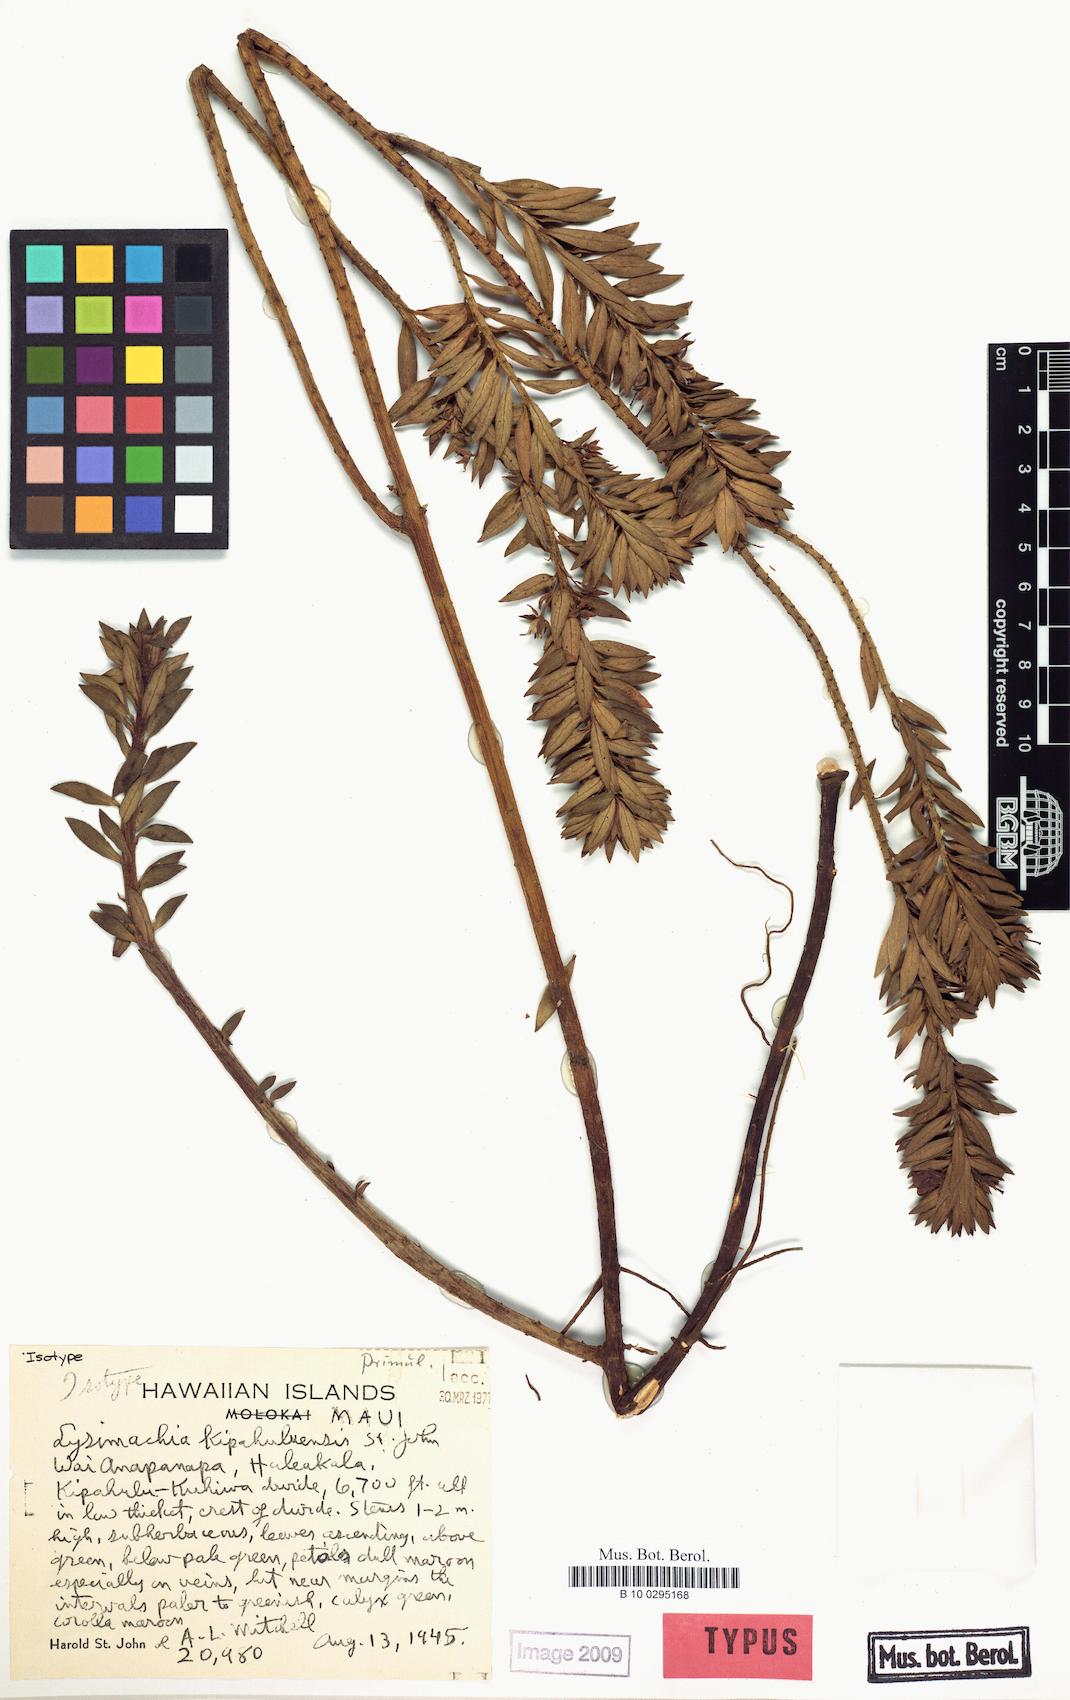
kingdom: Plantae
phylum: Tracheophyta
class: Magnoliopsida
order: Ericales
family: Primulaceae
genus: Lysimachia
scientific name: Lysimachia remyi
